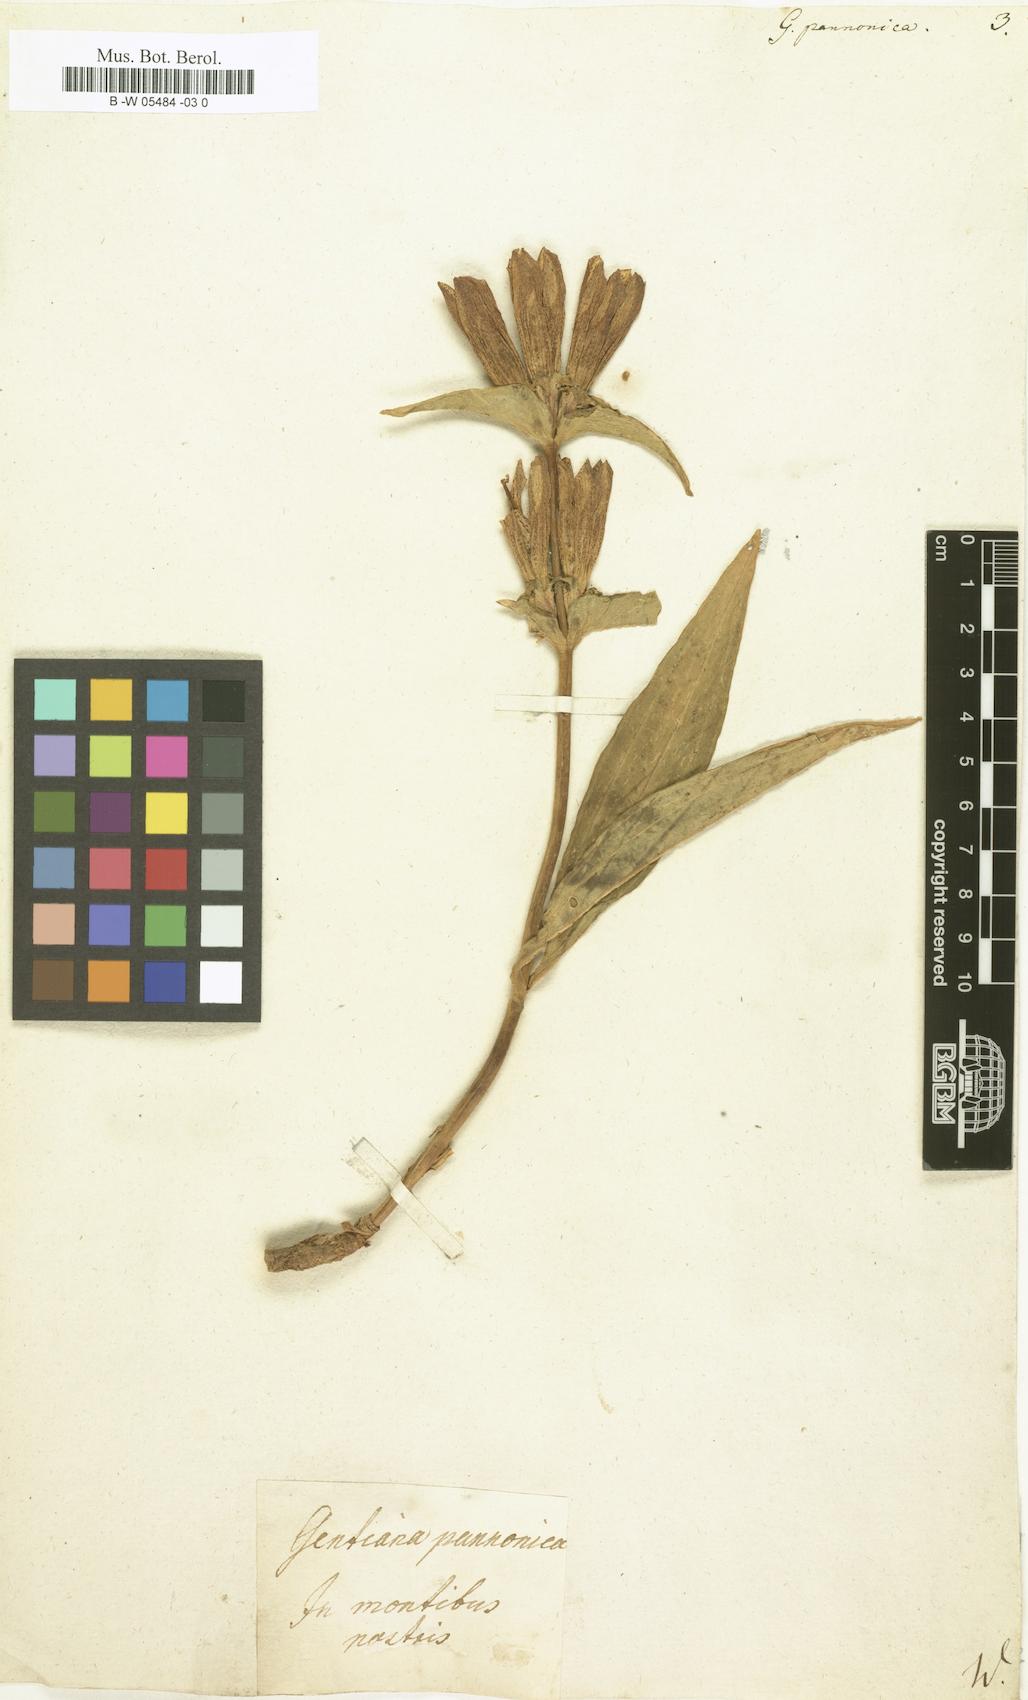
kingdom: Plantae
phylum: Tracheophyta
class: Magnoliopsida
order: Gentianales
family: Gentianaceae
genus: Gentiana
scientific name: Gentiana pannonica
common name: Hungarian gentian
